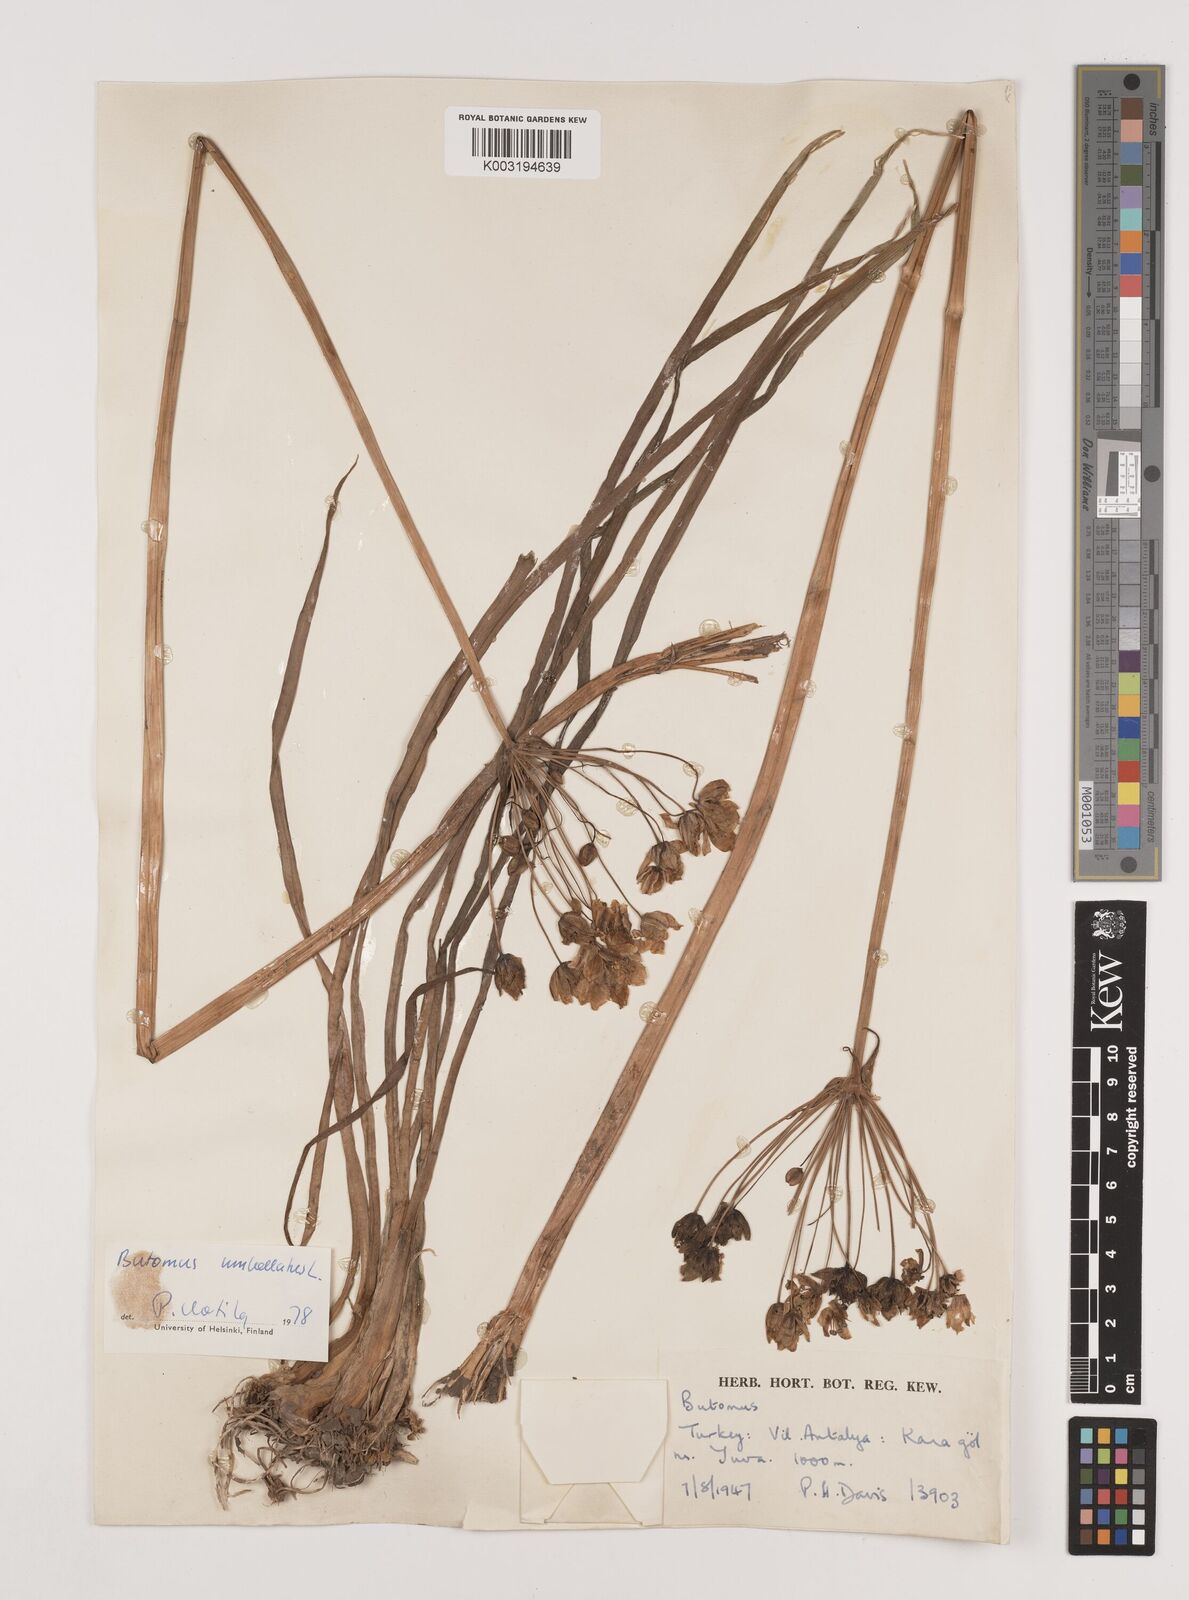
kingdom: Plantae
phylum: Tracheophyta
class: Liliopsida
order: Alismatales
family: Butomaceae
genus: Butomus
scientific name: Butomus umbellatus
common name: Flowering-rush
